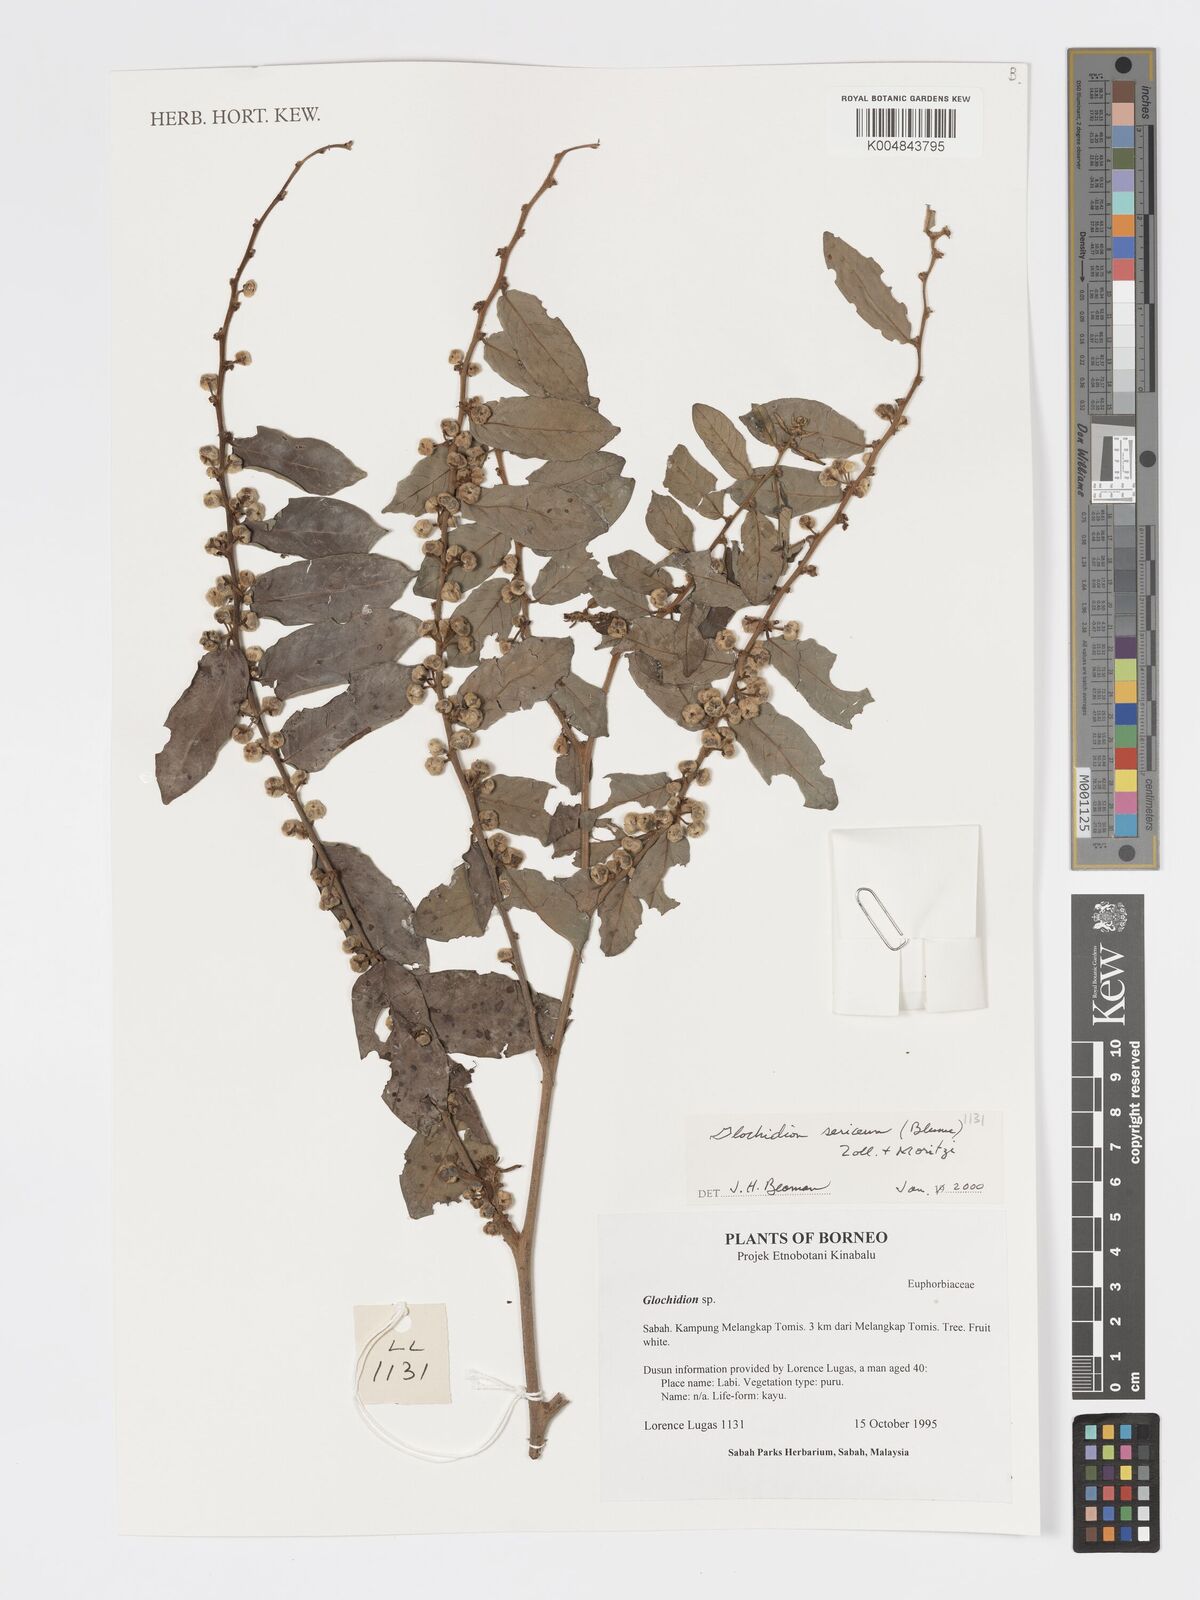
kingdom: Plantae
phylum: Tracheophyta
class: Magnoliopsida
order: Malpighiales
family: Phyllanthaceae
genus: Glochidion
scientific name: Glochidion sericeum
